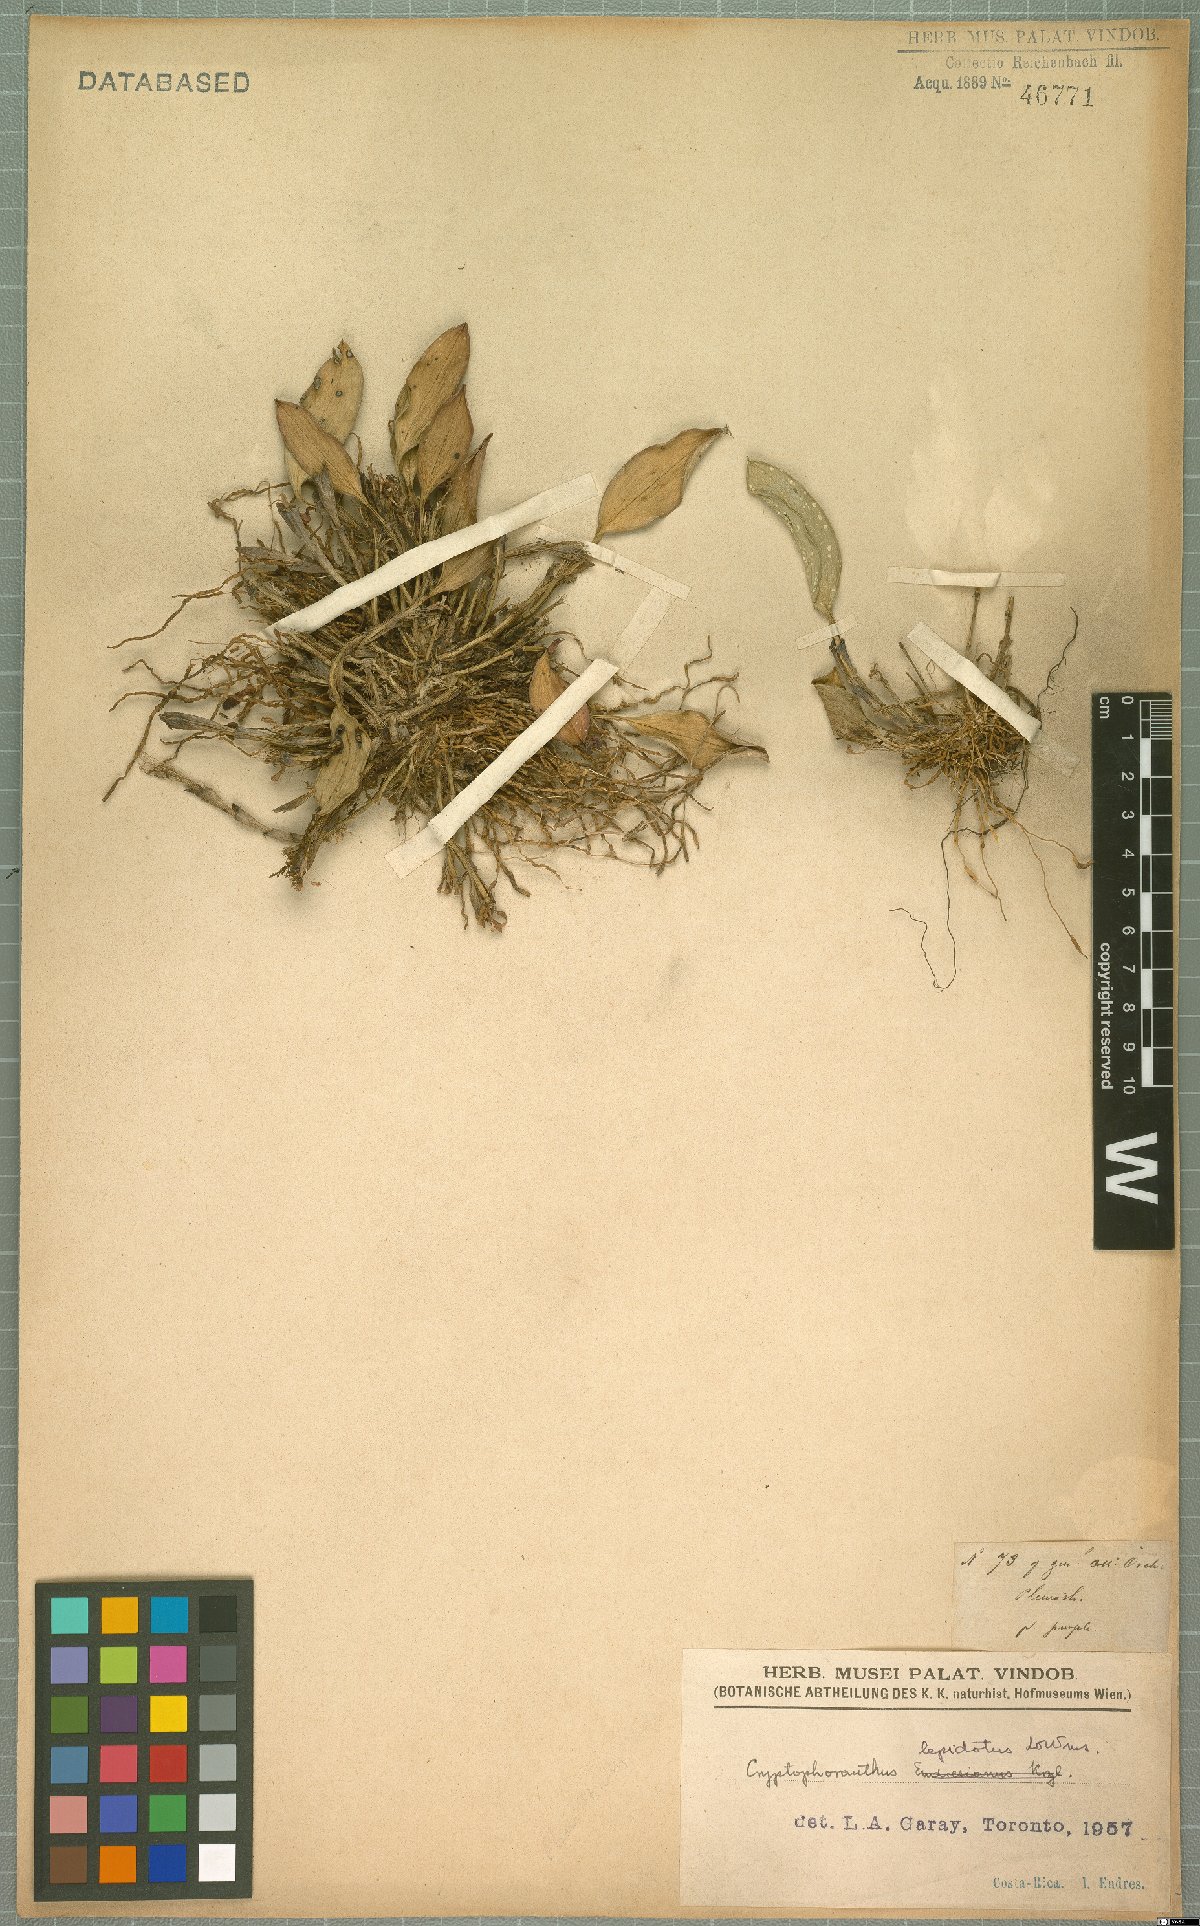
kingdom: Plantae
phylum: Tracheophyta
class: Liliopsida
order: Asparagales
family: Orchidaceae
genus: Zootrophion
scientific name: Zootrophion gracilentum
